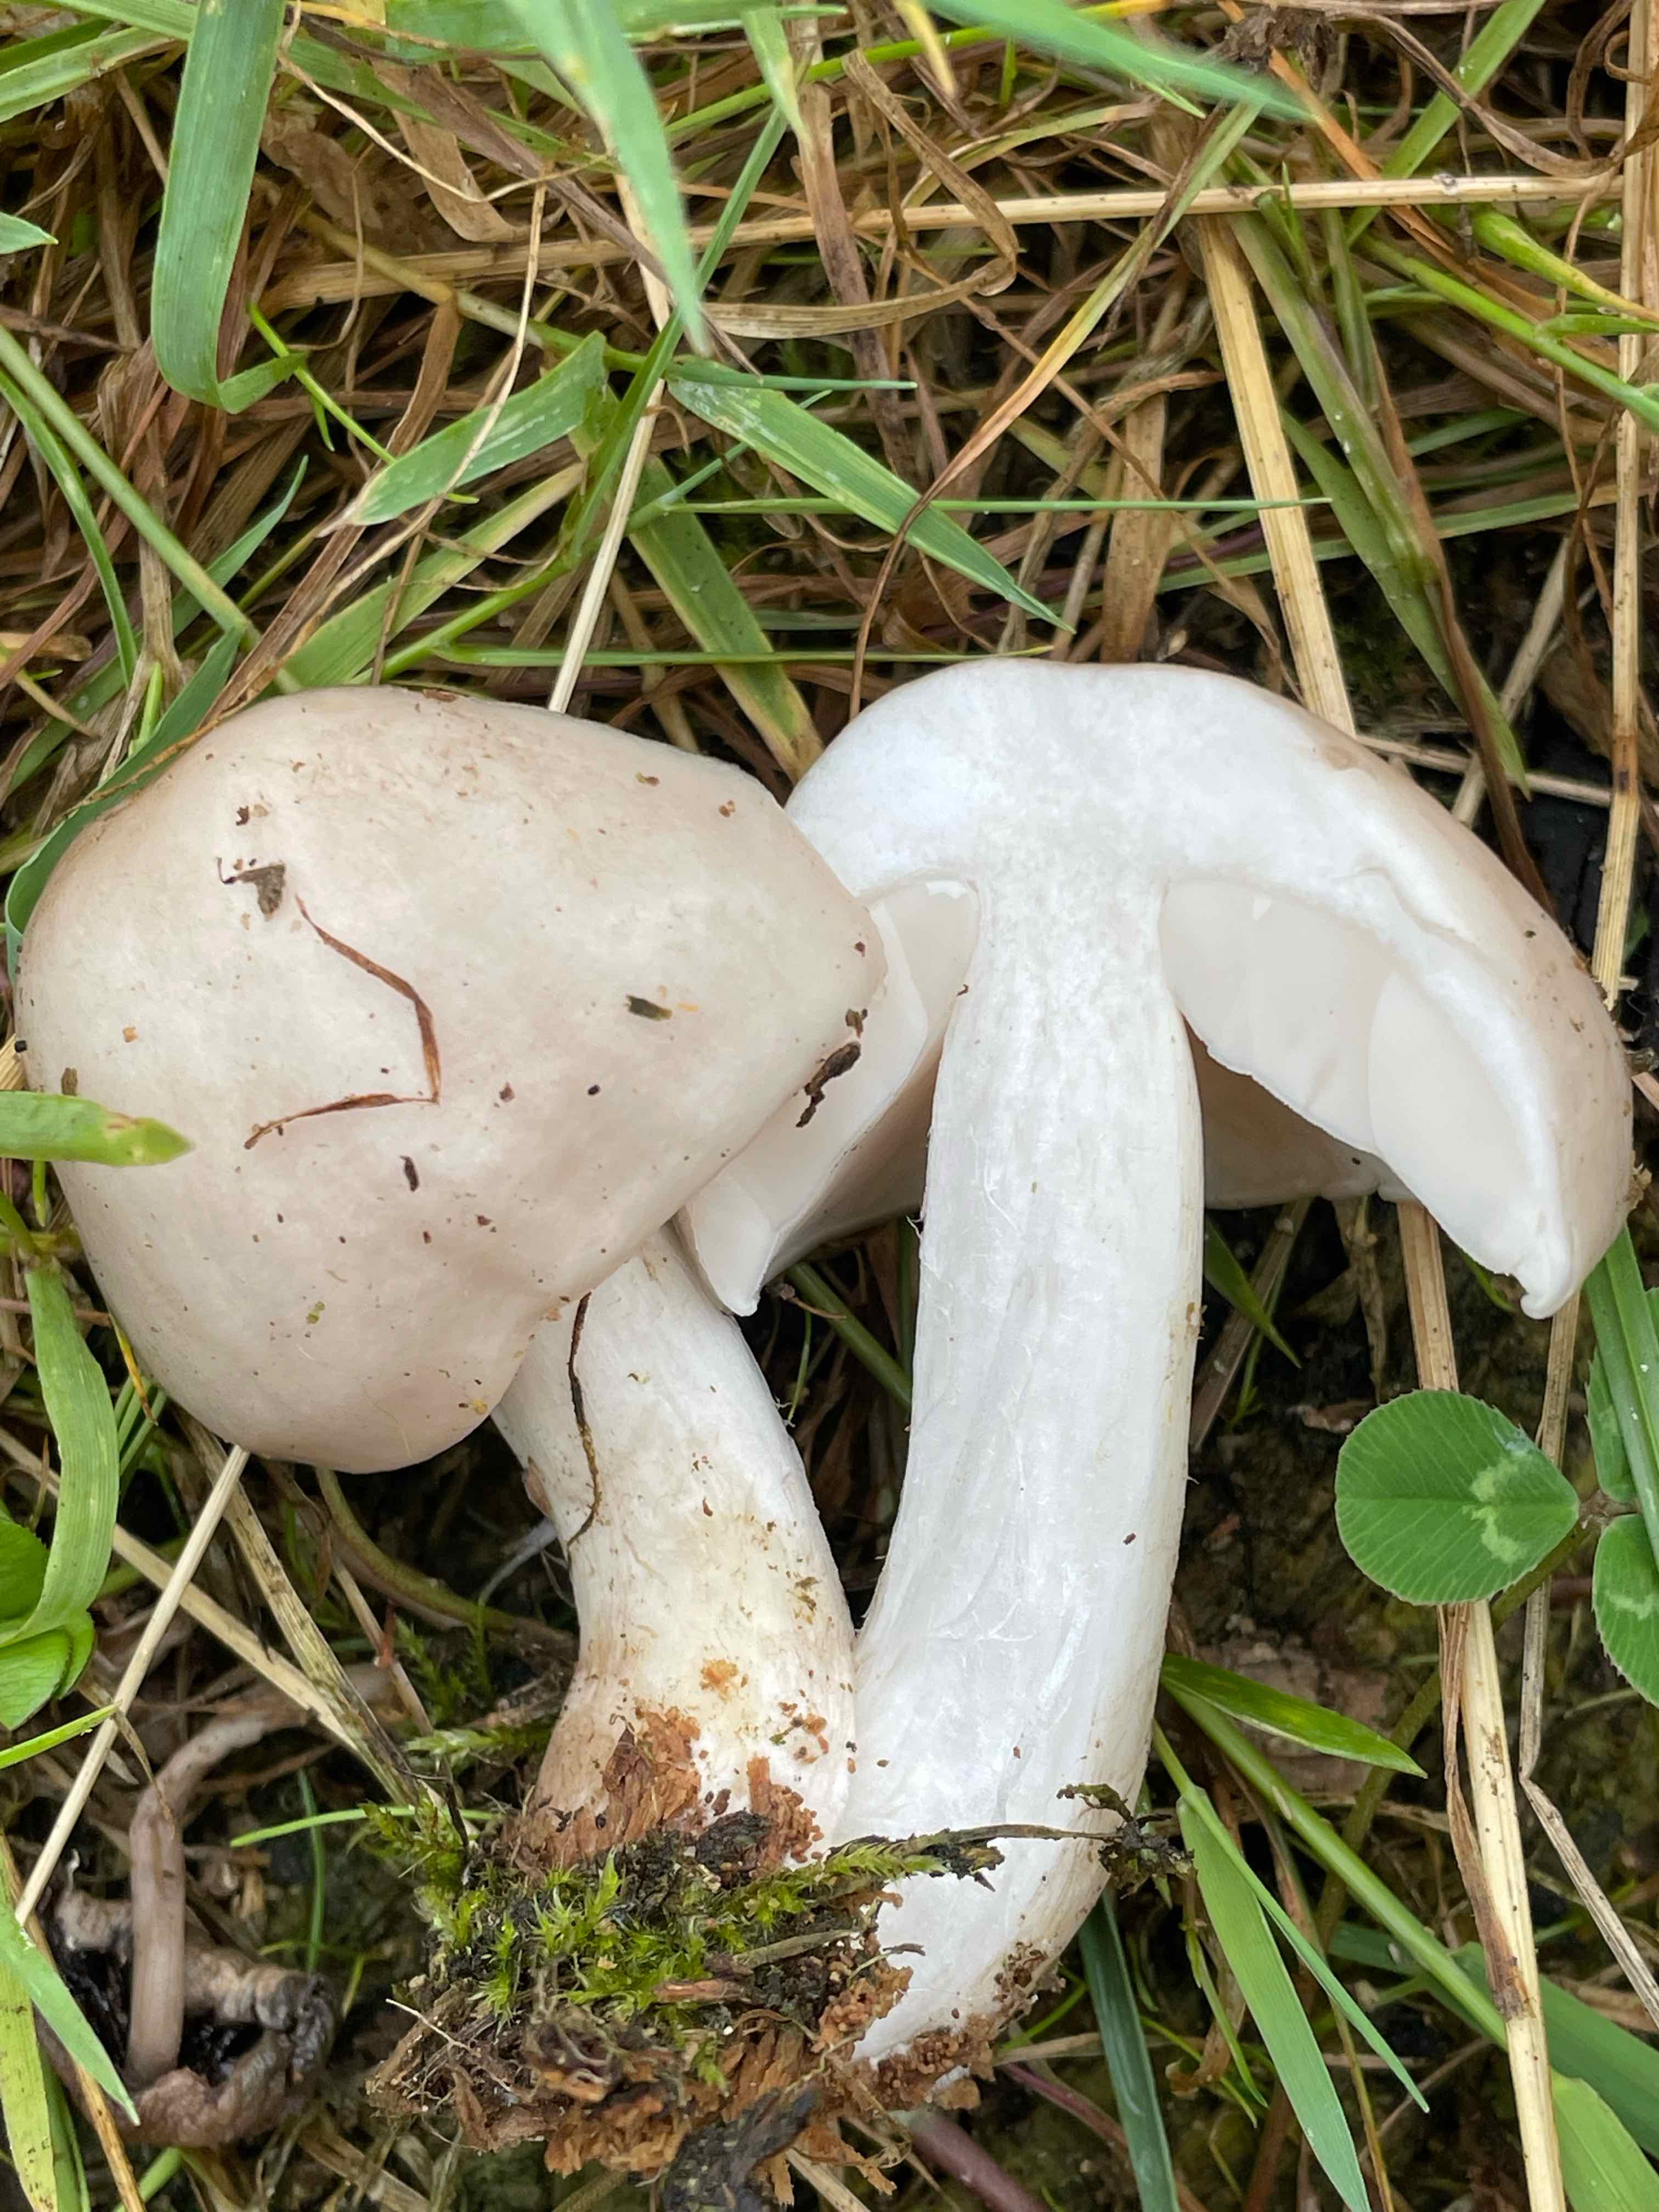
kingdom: Fungi
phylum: Basidiomycota
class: Agaricomycetes
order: Agaricales
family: Pluteaceae
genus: Pluteus
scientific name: Pluteus petasatus
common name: savsmulds-skærmhat
